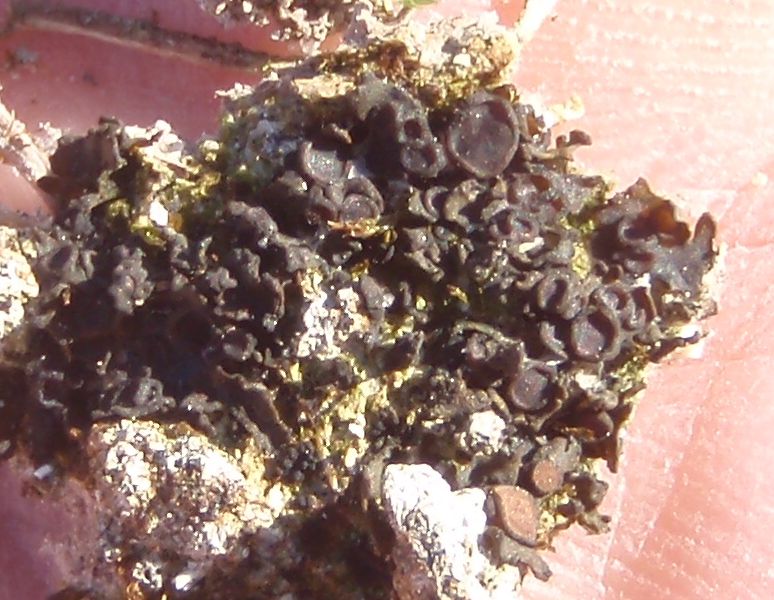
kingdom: Fungi
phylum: Ascomycota
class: Lecanoromycetes
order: Peltigerales
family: Collemataceae
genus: Enchylium
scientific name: Enchylium tenax
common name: tyk bævrelav
